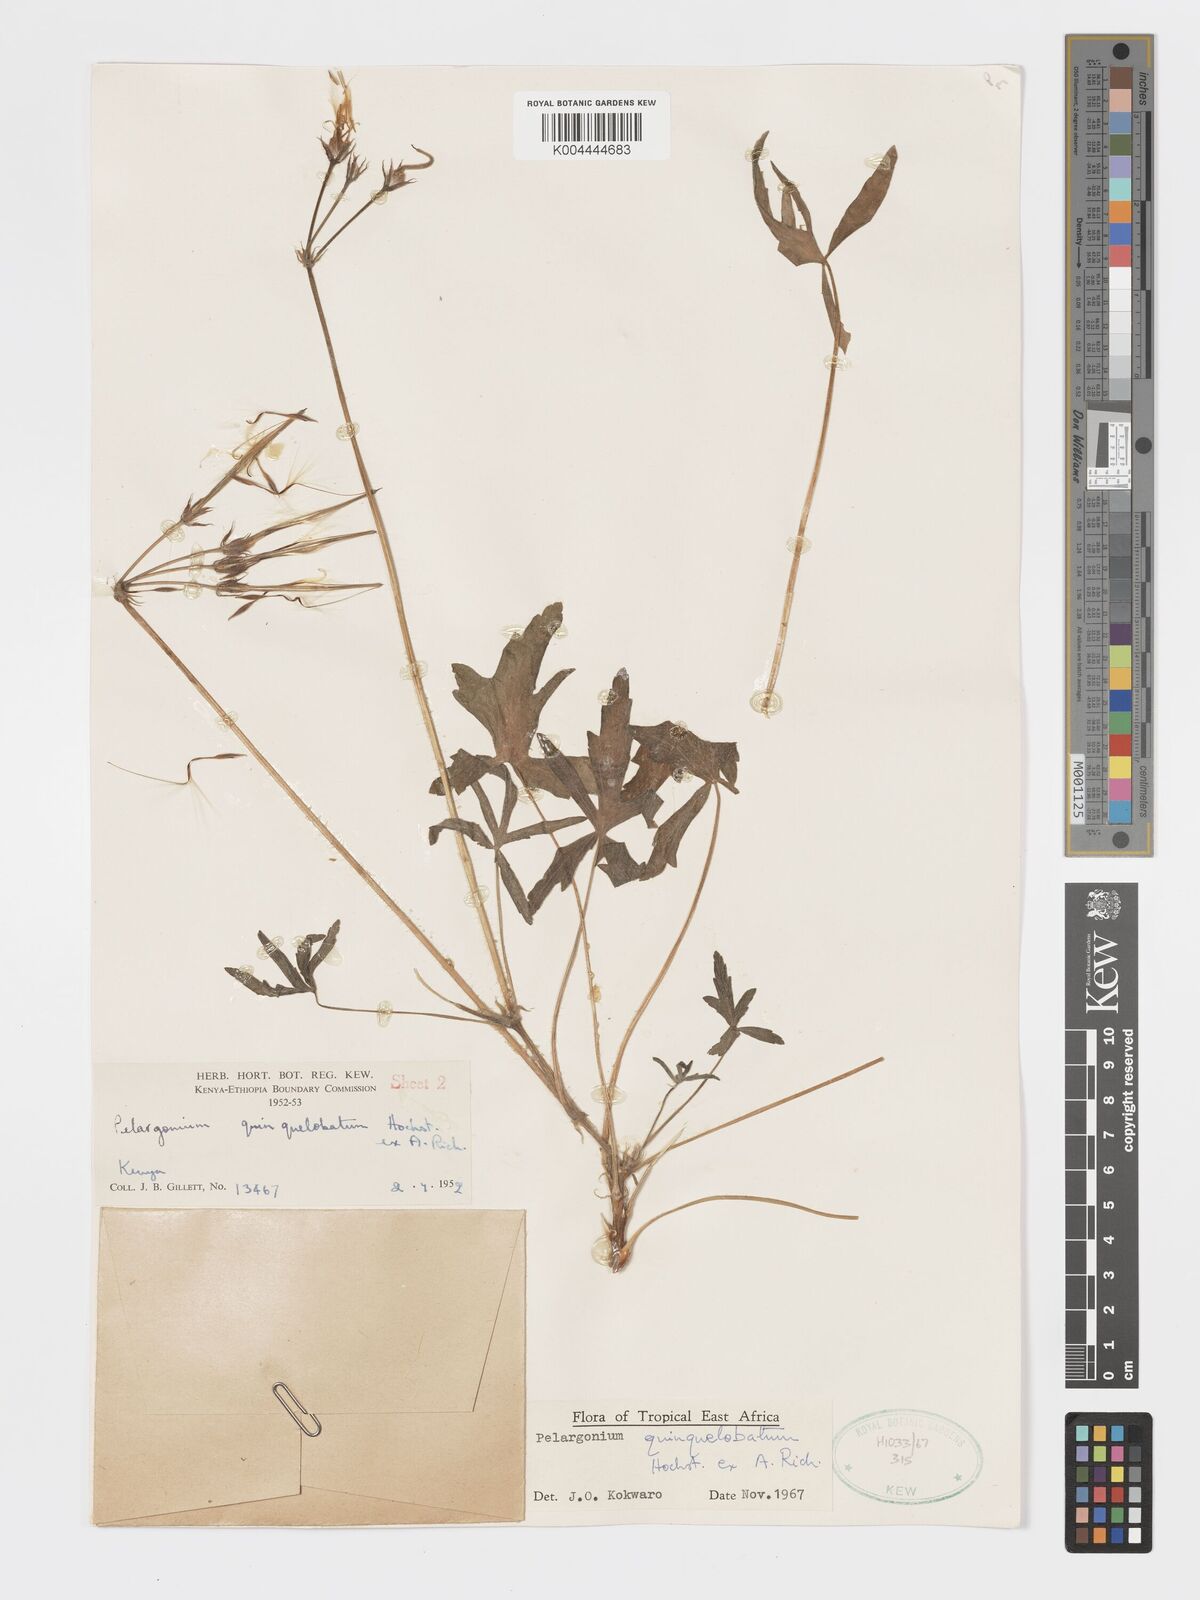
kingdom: Plantae
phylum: Tracheophyta
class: Magnoliopsida
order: Geraniales
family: Geraniaceae
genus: Pelargonium
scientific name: Pelargonium quinquelobatum
